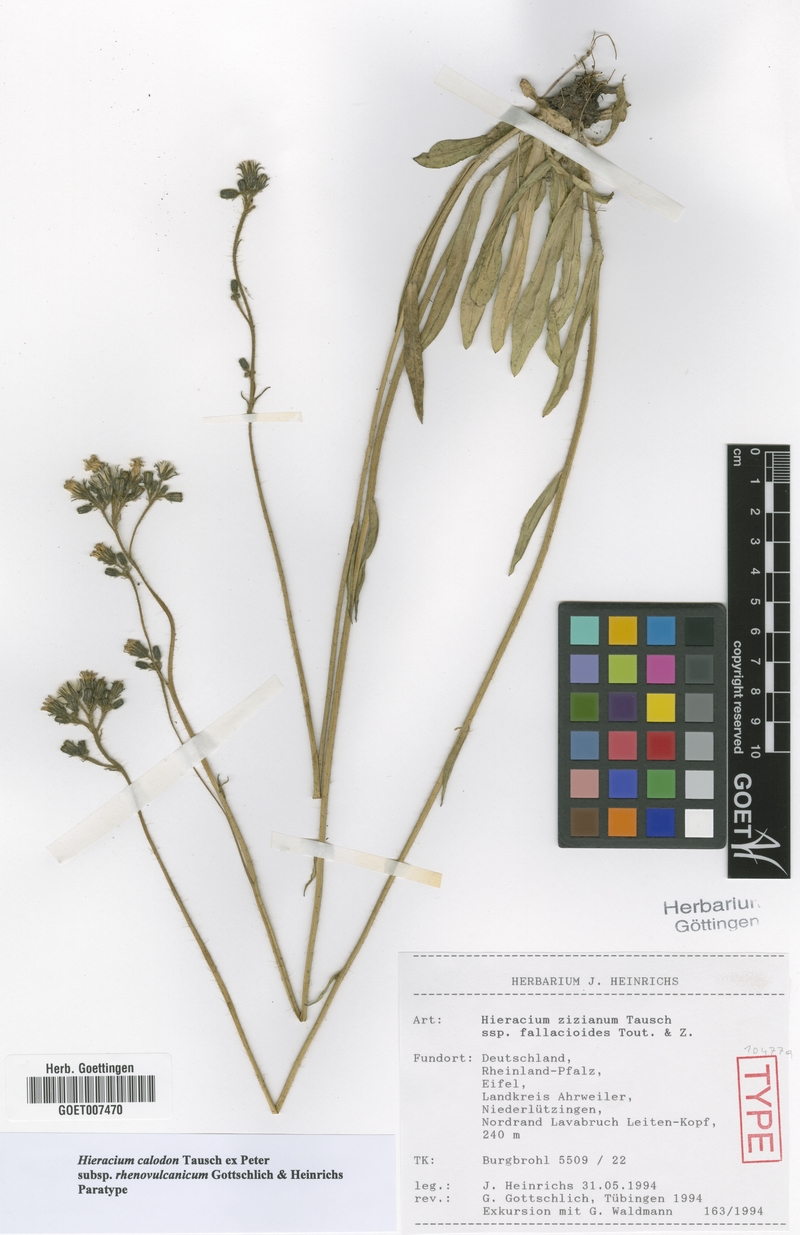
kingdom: Plantae
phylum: Tracheophyta
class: Magnoliopsida
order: Asterales
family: Asteraceae
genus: Pilosella
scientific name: Pilosella calodon
